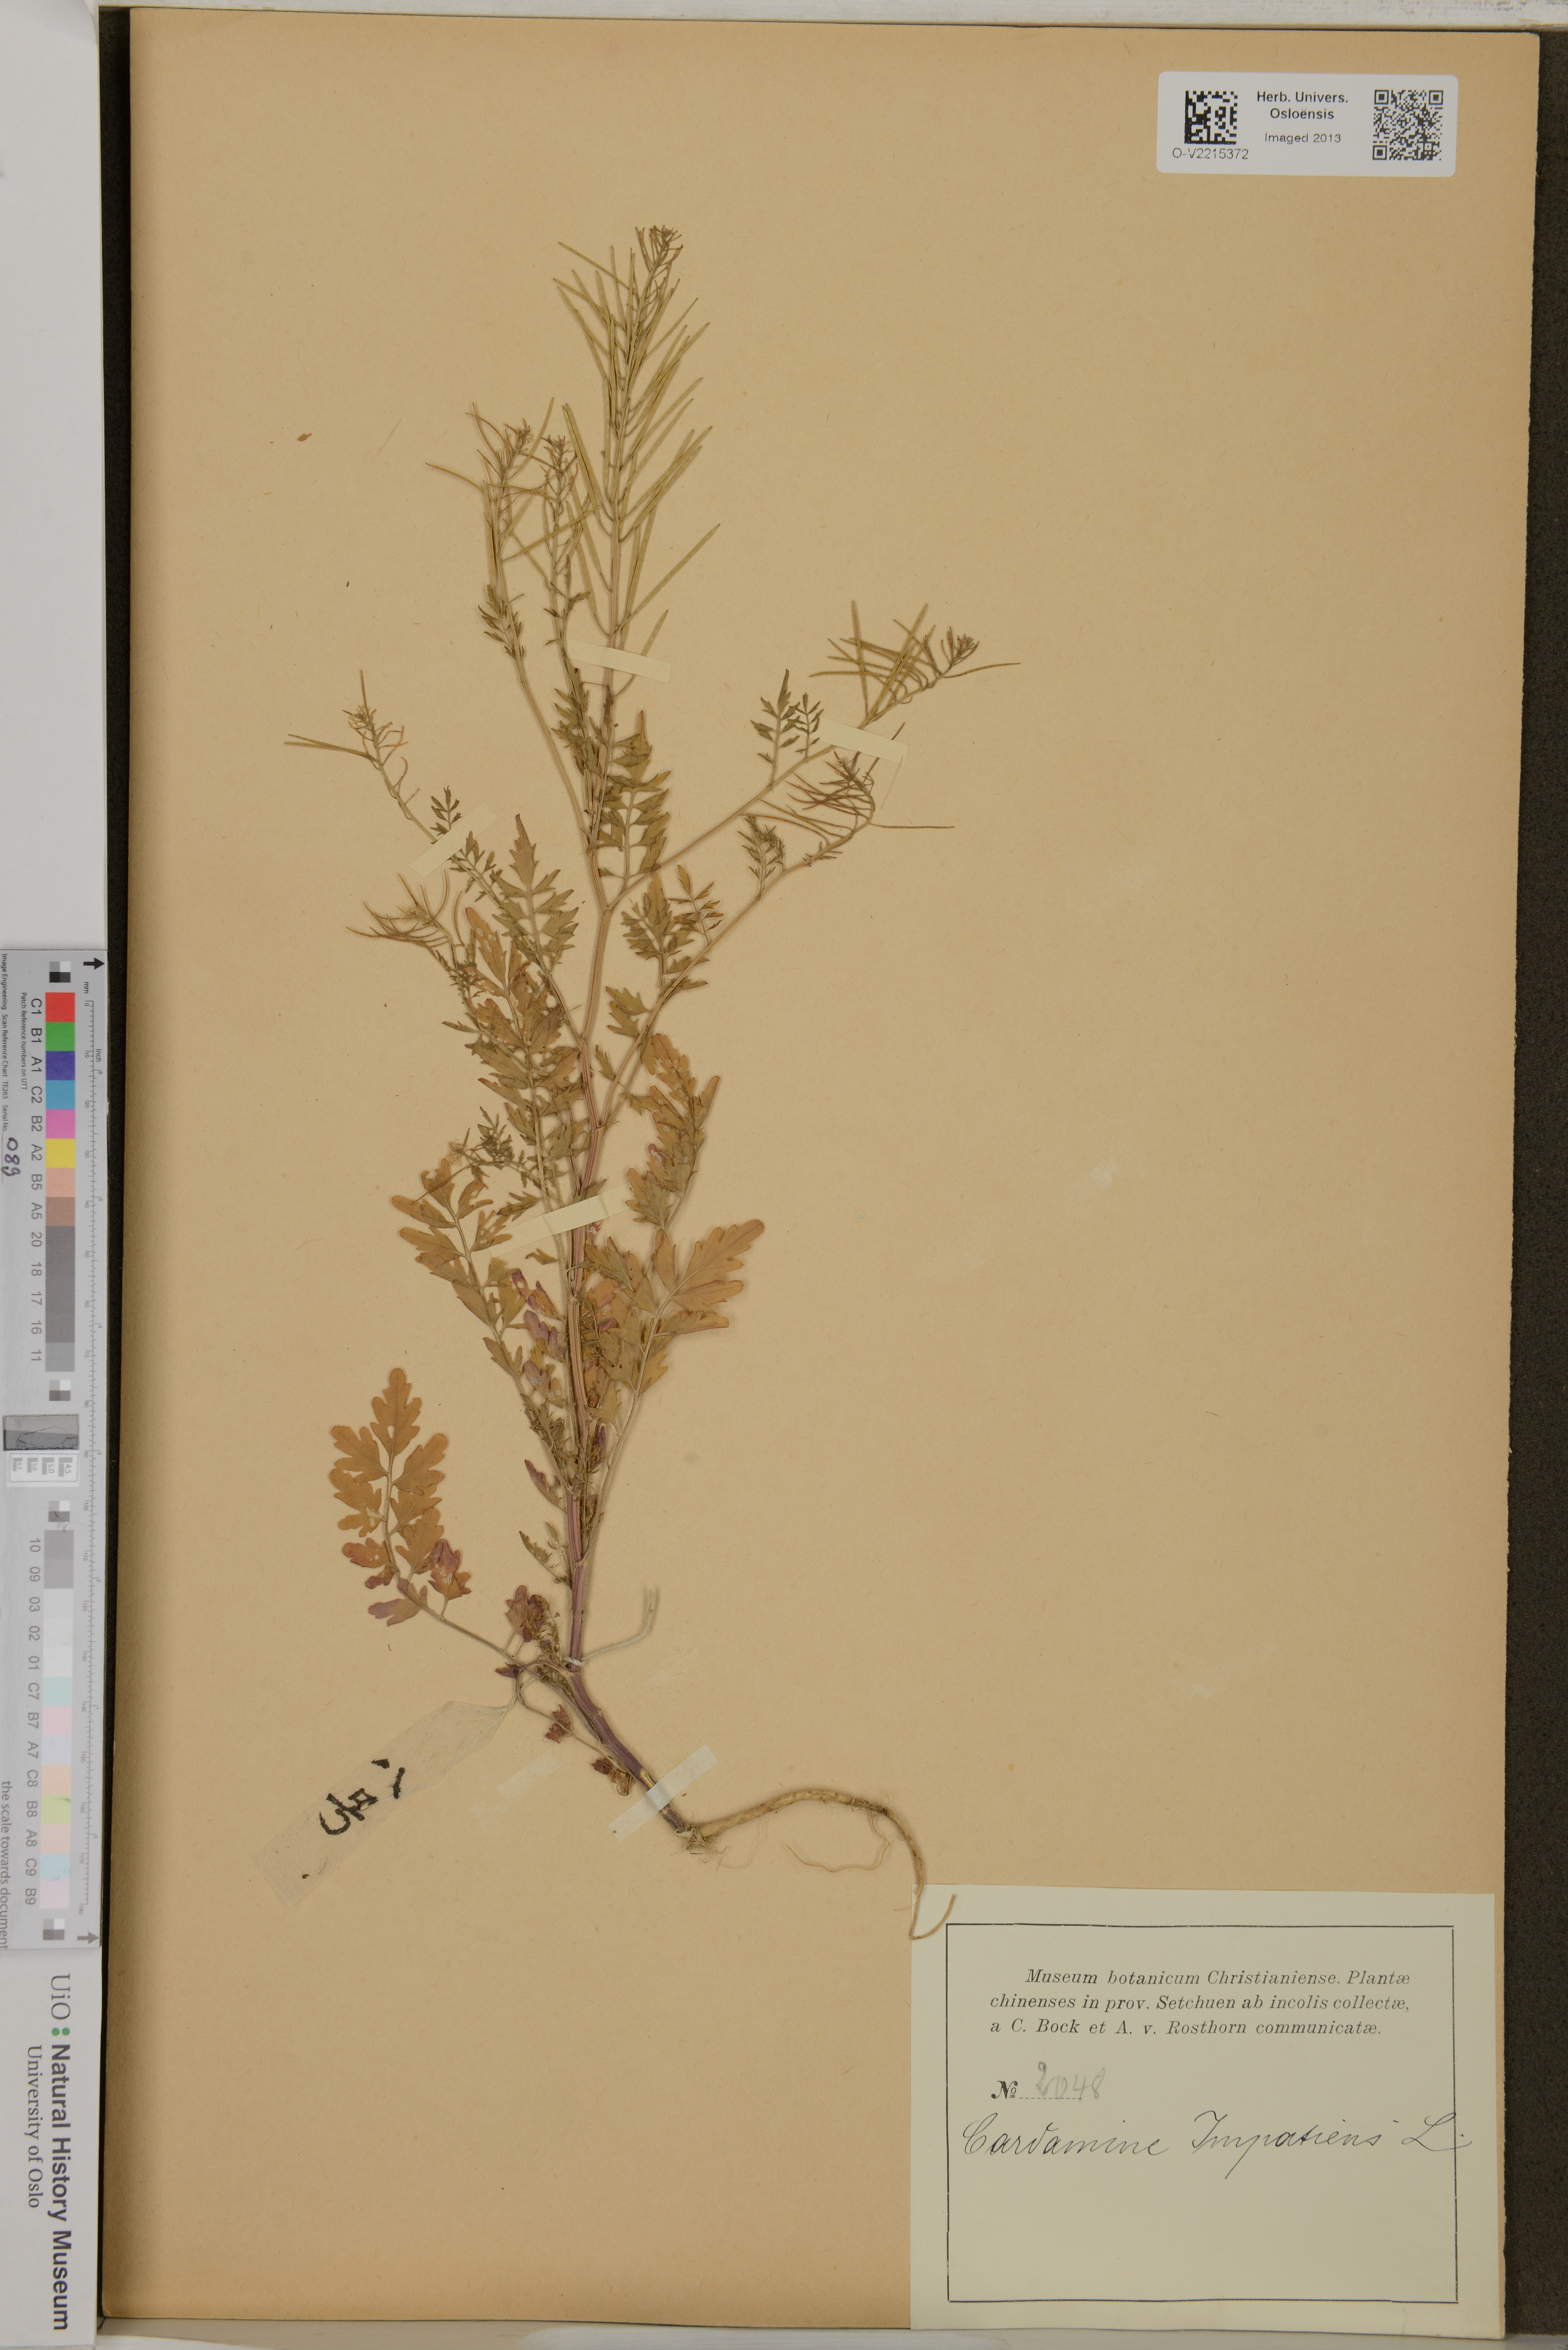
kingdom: Plantae
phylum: Tracheophyta
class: Magnoliopsida
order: Brassicales
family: Brassicaceae
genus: Cardamine
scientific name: Cardamine impatiens
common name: Narrow-leaved bitter-cress
